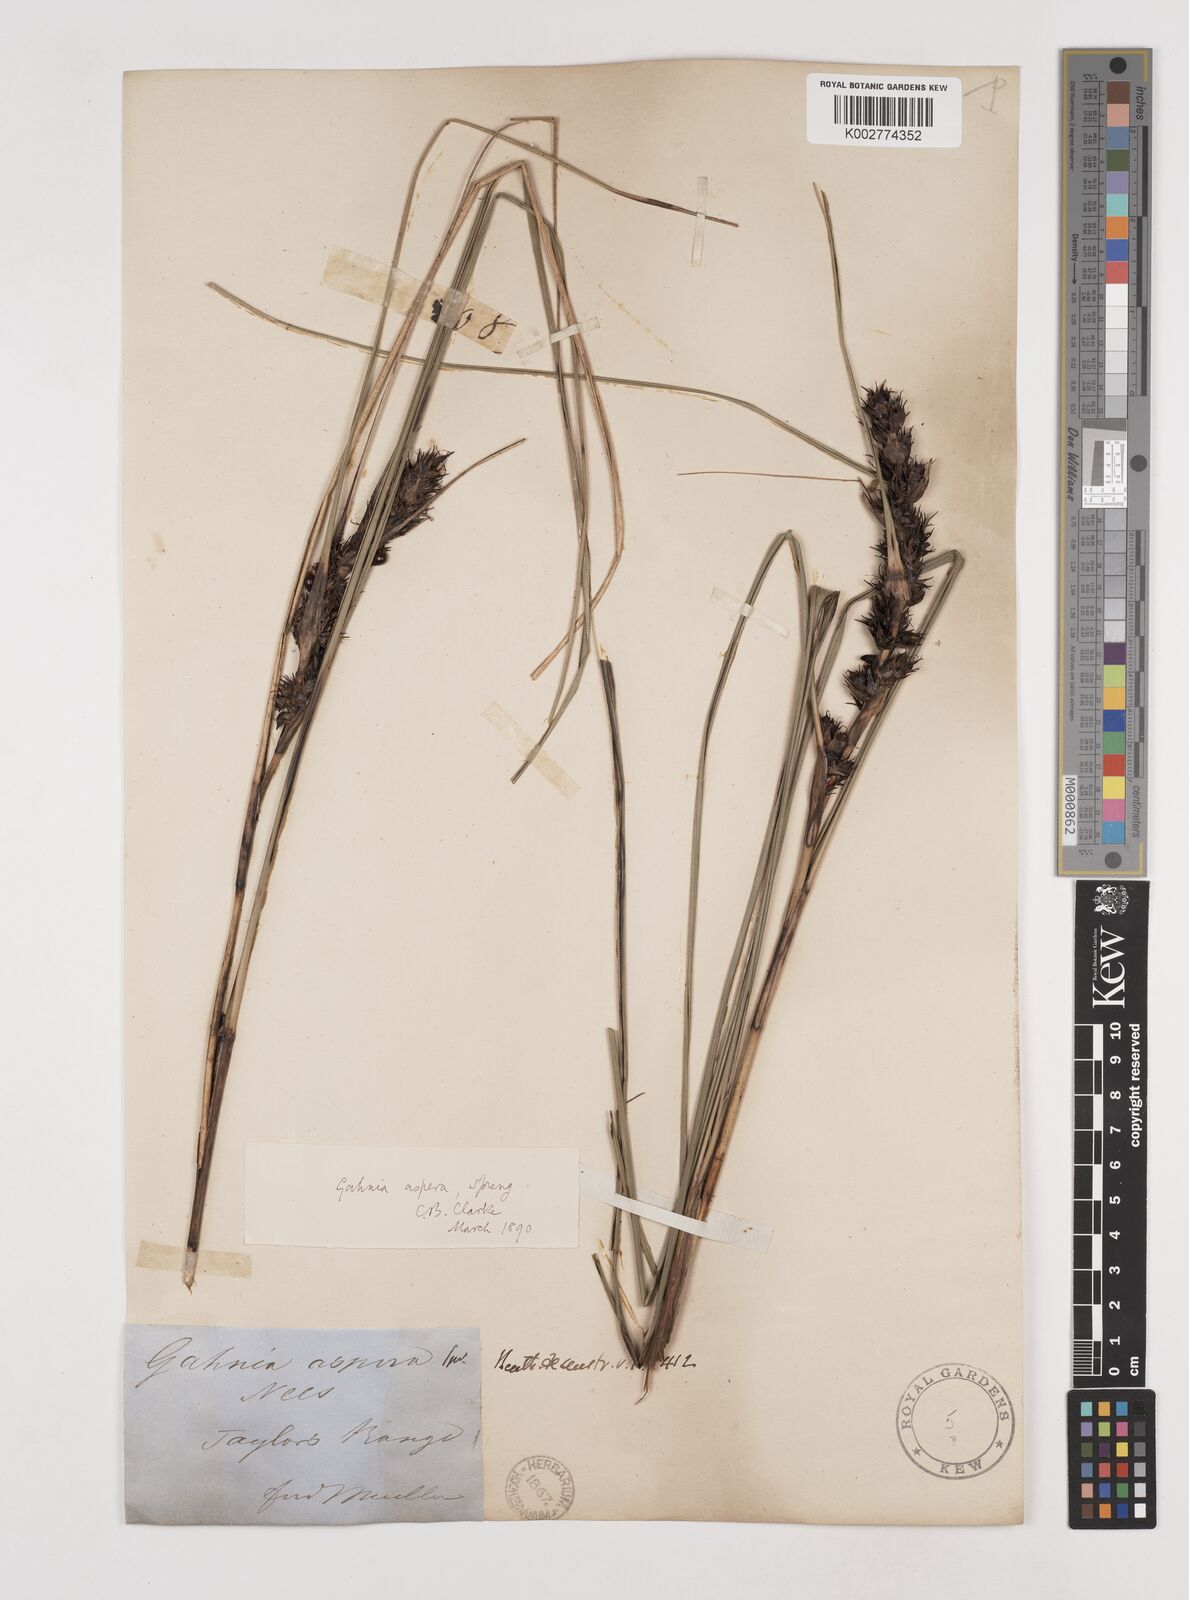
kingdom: Plantae
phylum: Tracheophyta
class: Liliopsida
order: Poales
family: Cyperaceae
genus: Gahnia
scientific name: Gahnia aspera
